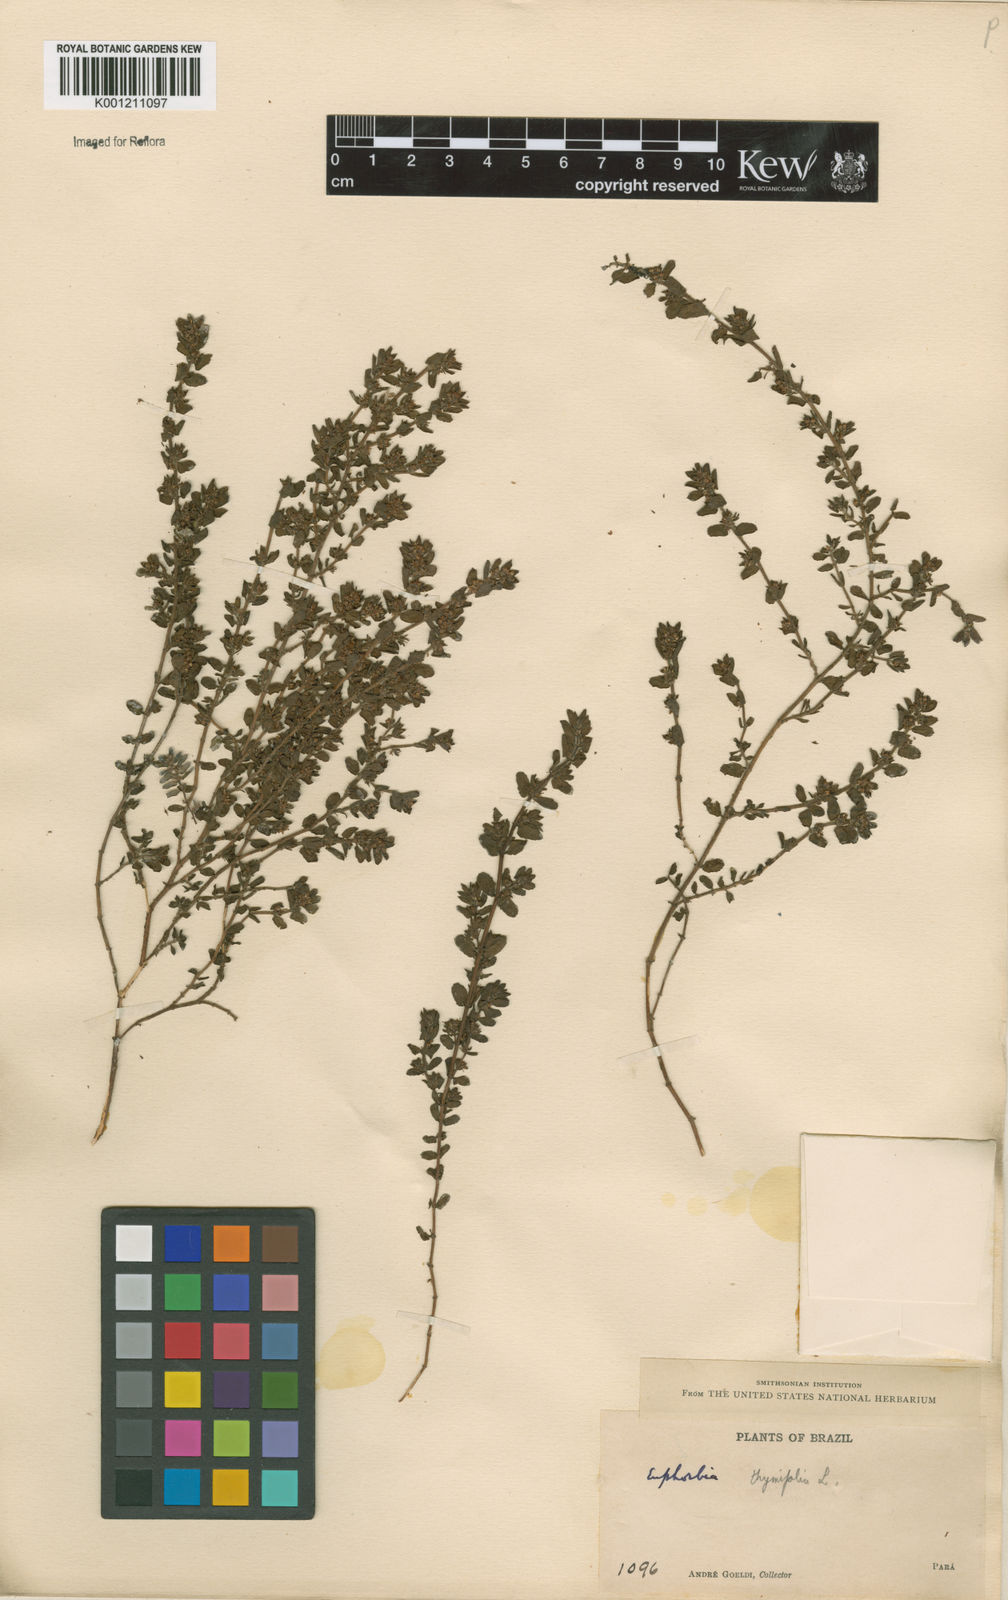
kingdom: Plantae
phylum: Tracheophyta
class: Magnoliopsida
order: Malpighiales
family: Euphorbiaceae
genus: Euphorbia
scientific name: Euphorbia thymifolia
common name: Gulf sandmat
